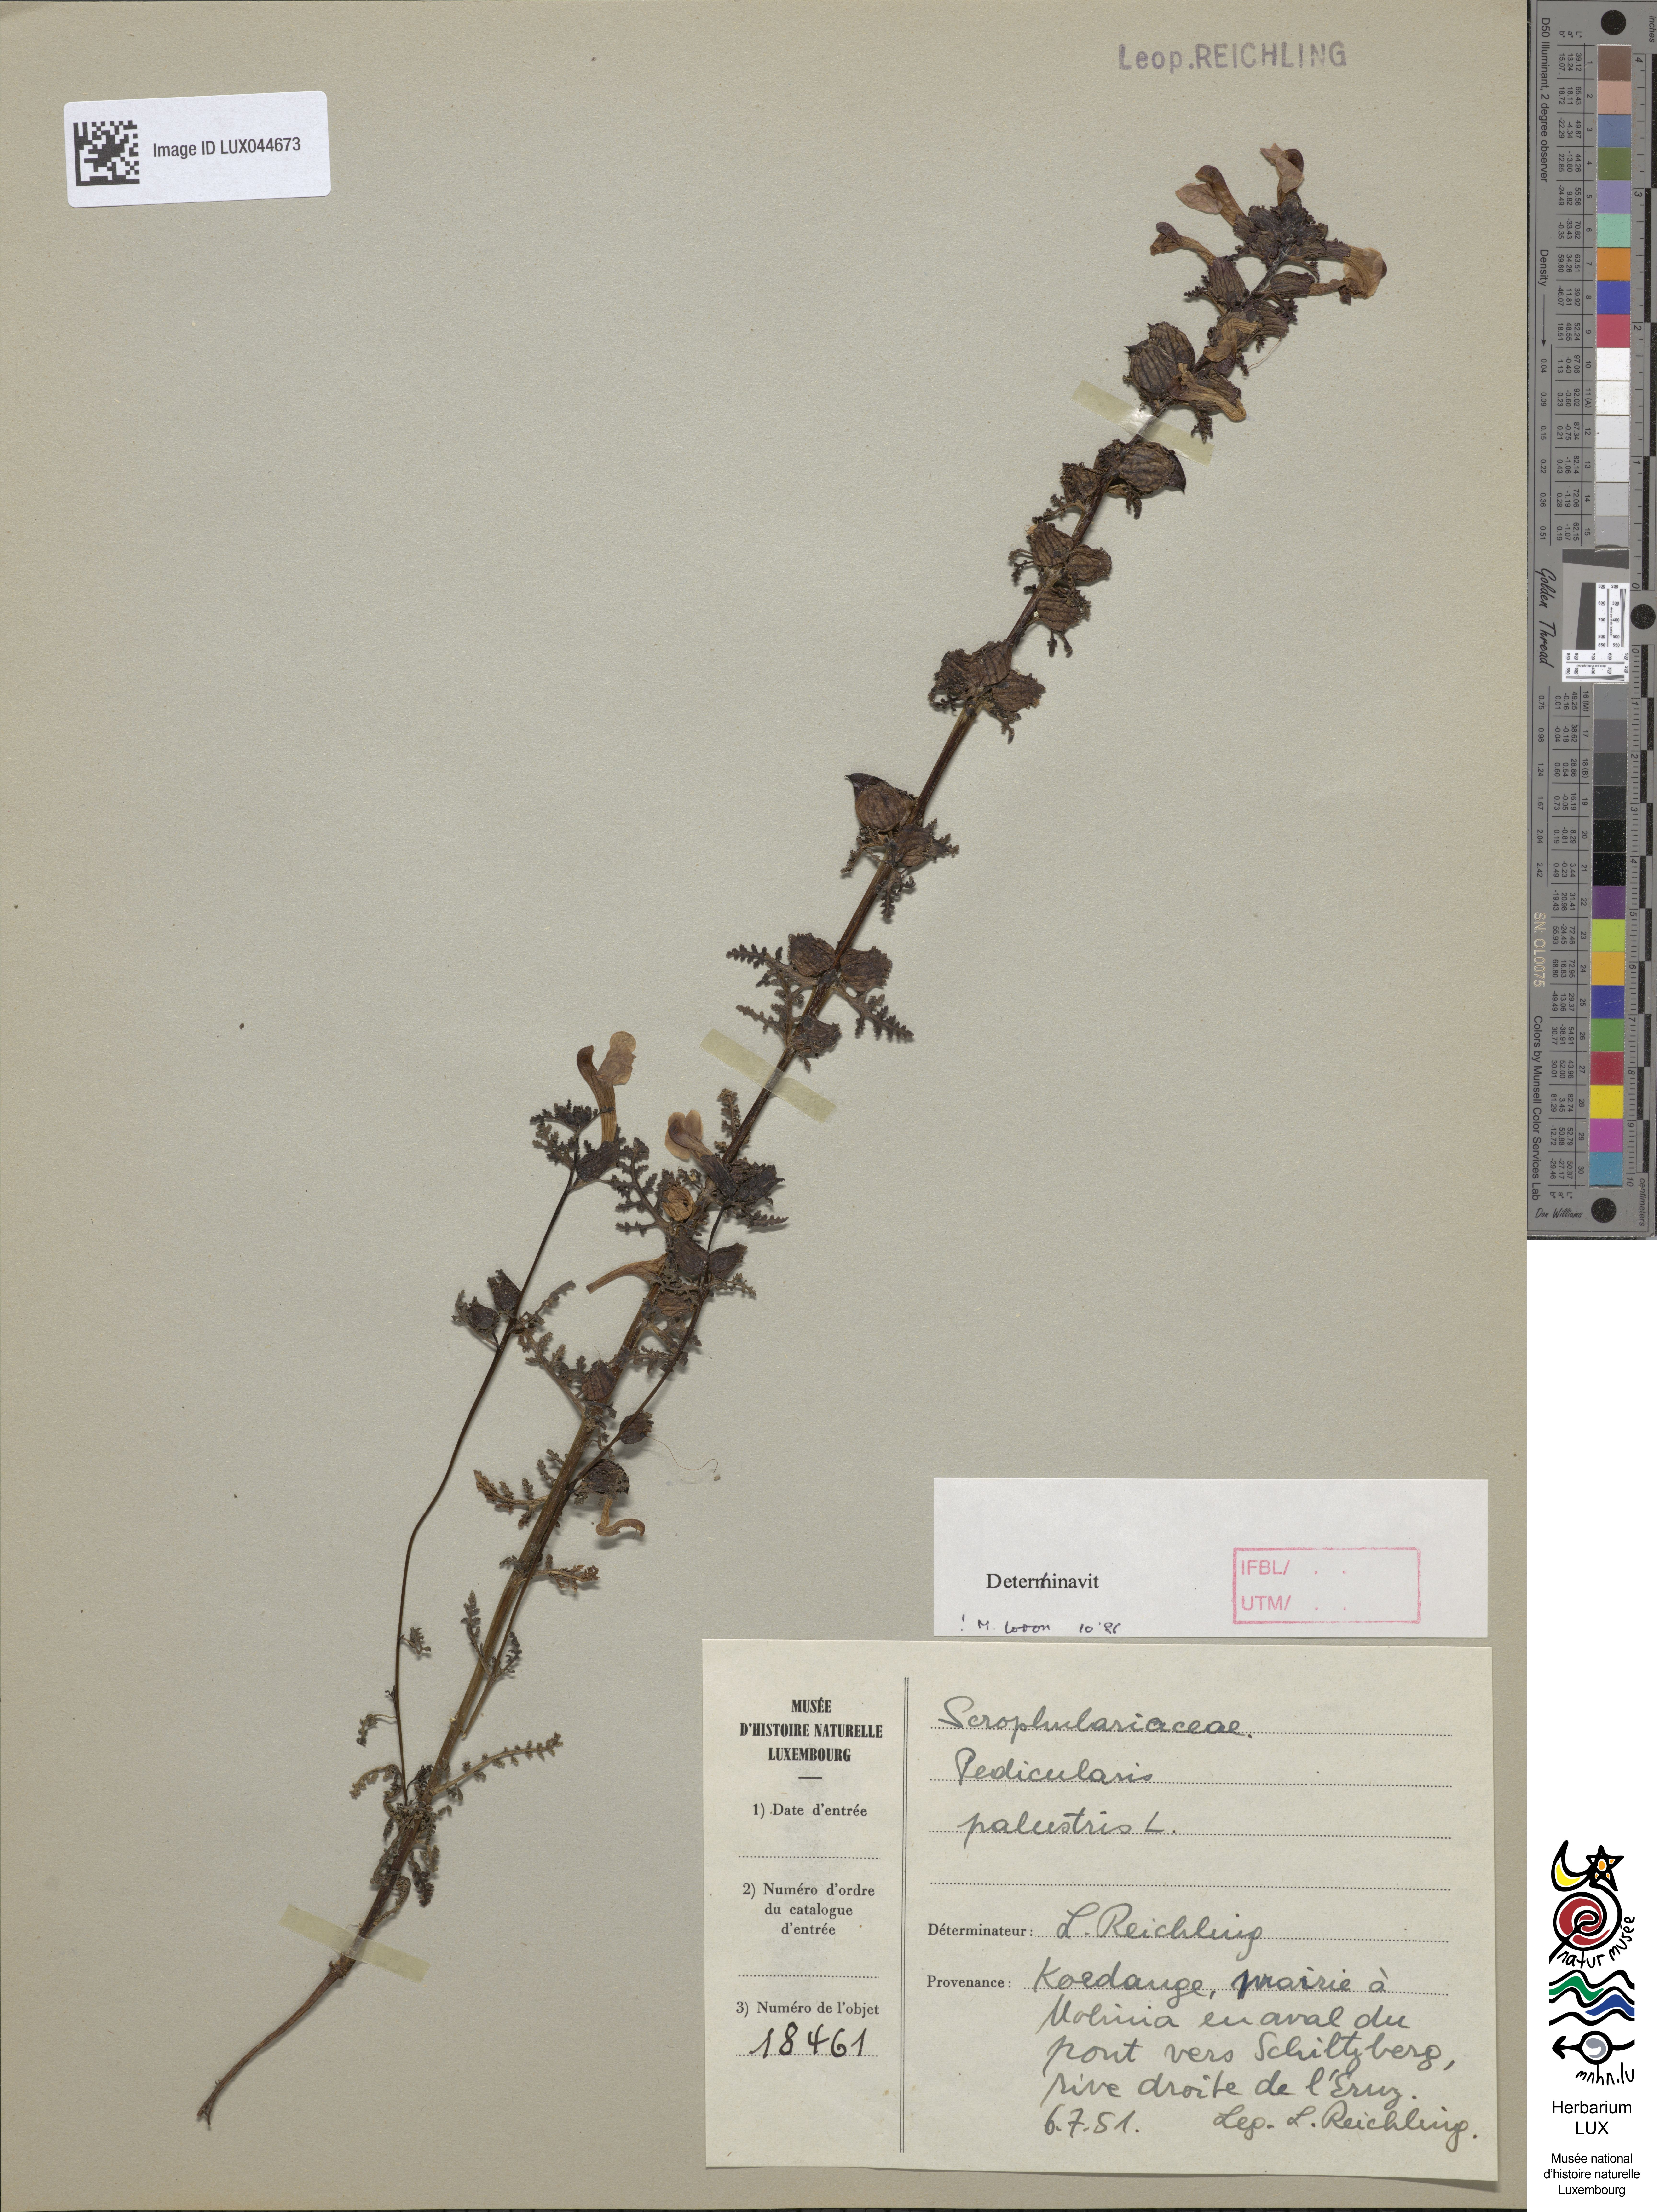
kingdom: Plantae
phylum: Tracheophyta
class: Magnoliopsida
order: Lamiales
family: Orobanchaceae
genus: Pedicularis
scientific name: Pedicularis palustris
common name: Marsh lousewort
